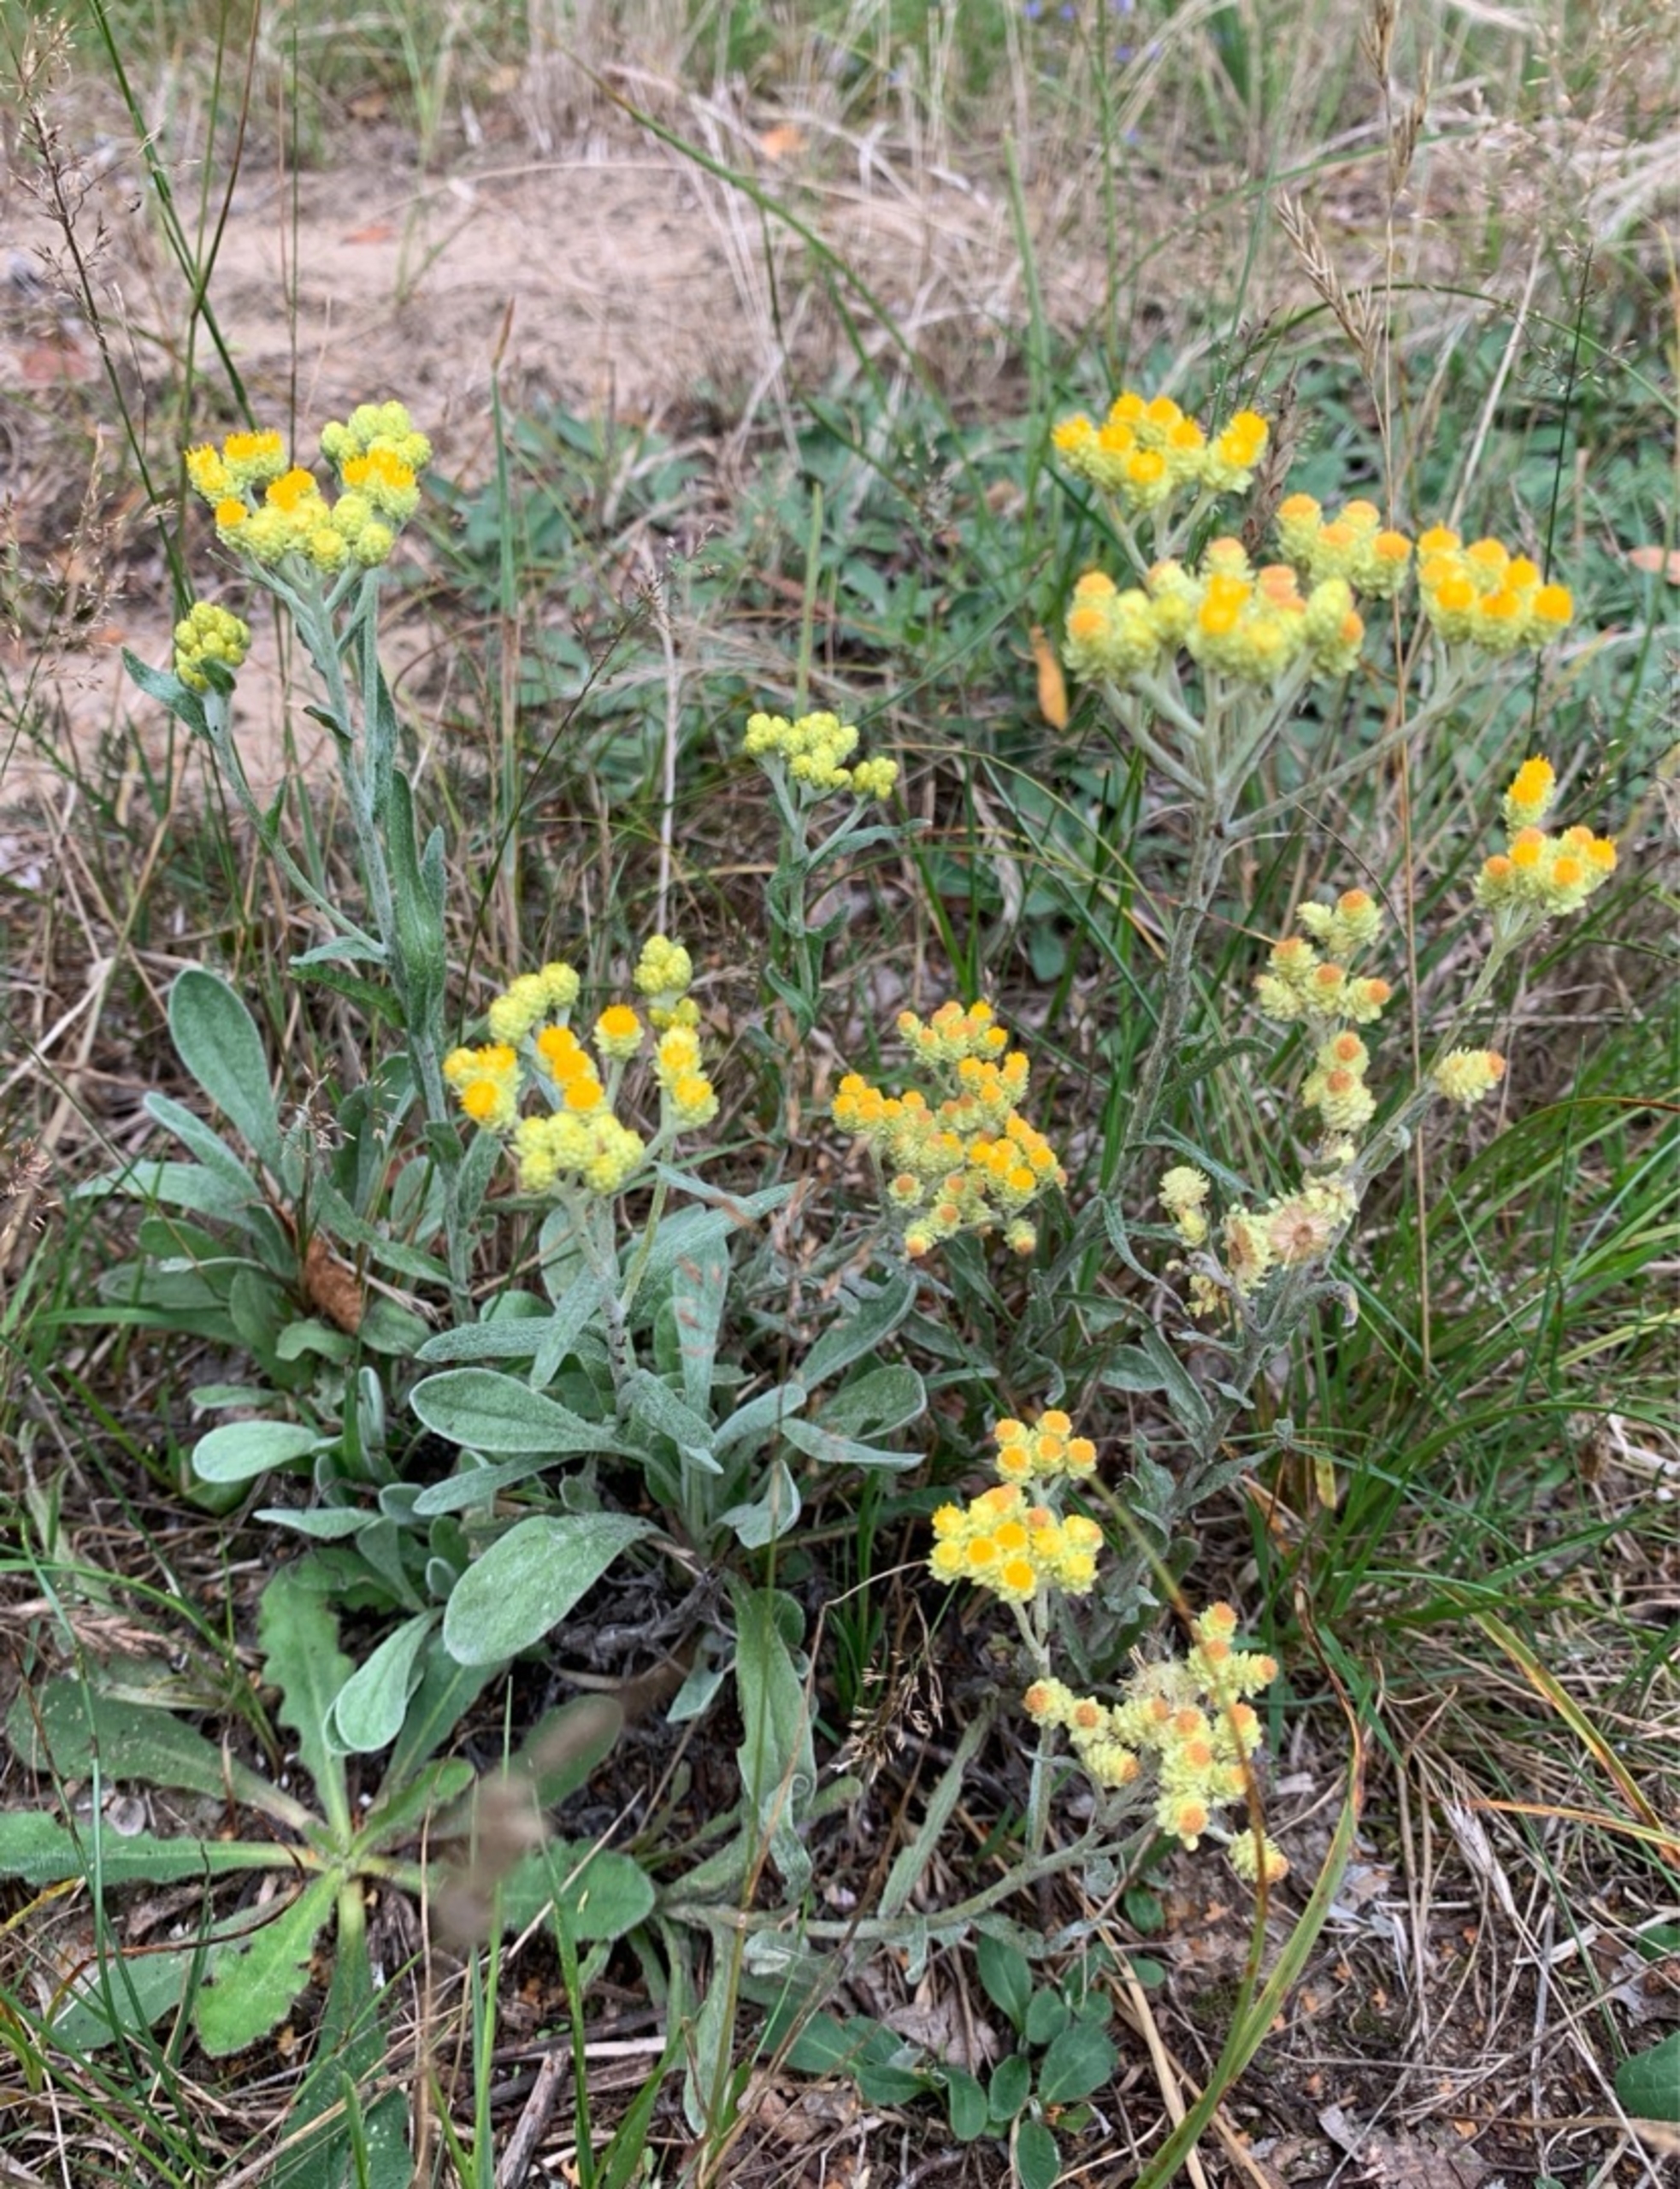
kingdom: Plantae
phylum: Tracheophyta
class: Magnoliopsida
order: Asterales
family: Asteraceae
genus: Helichrysum
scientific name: Helichrysum arenarium
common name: Gul evighedsblomst
